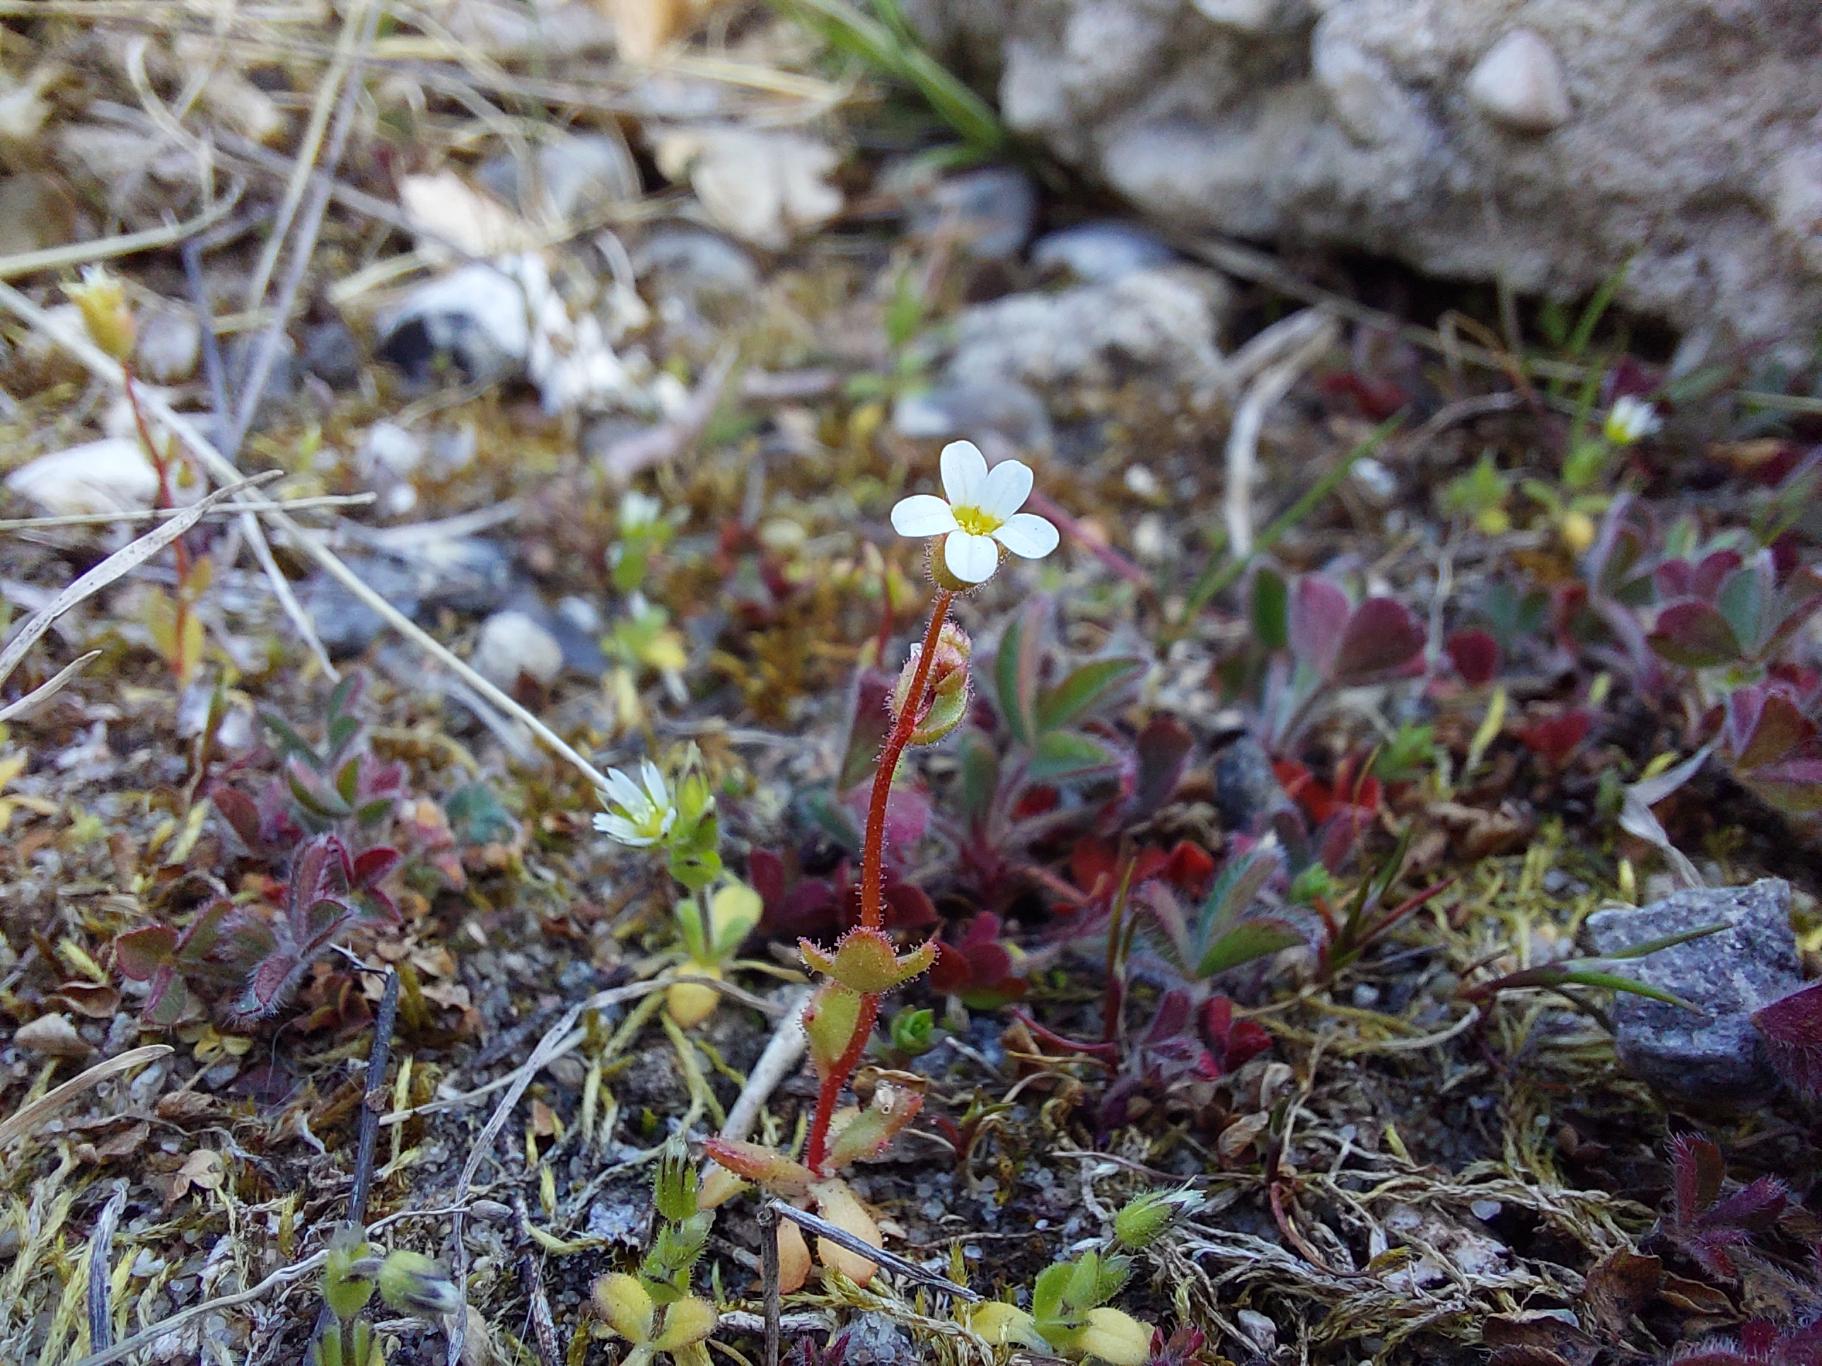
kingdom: Plantae
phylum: Tracheophyta
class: Magnoliopsida
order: Saxifragales
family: Saxifragaceae
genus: Saxifraga
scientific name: Saxifraga tridactylites
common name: Trekløft-stenbræk
